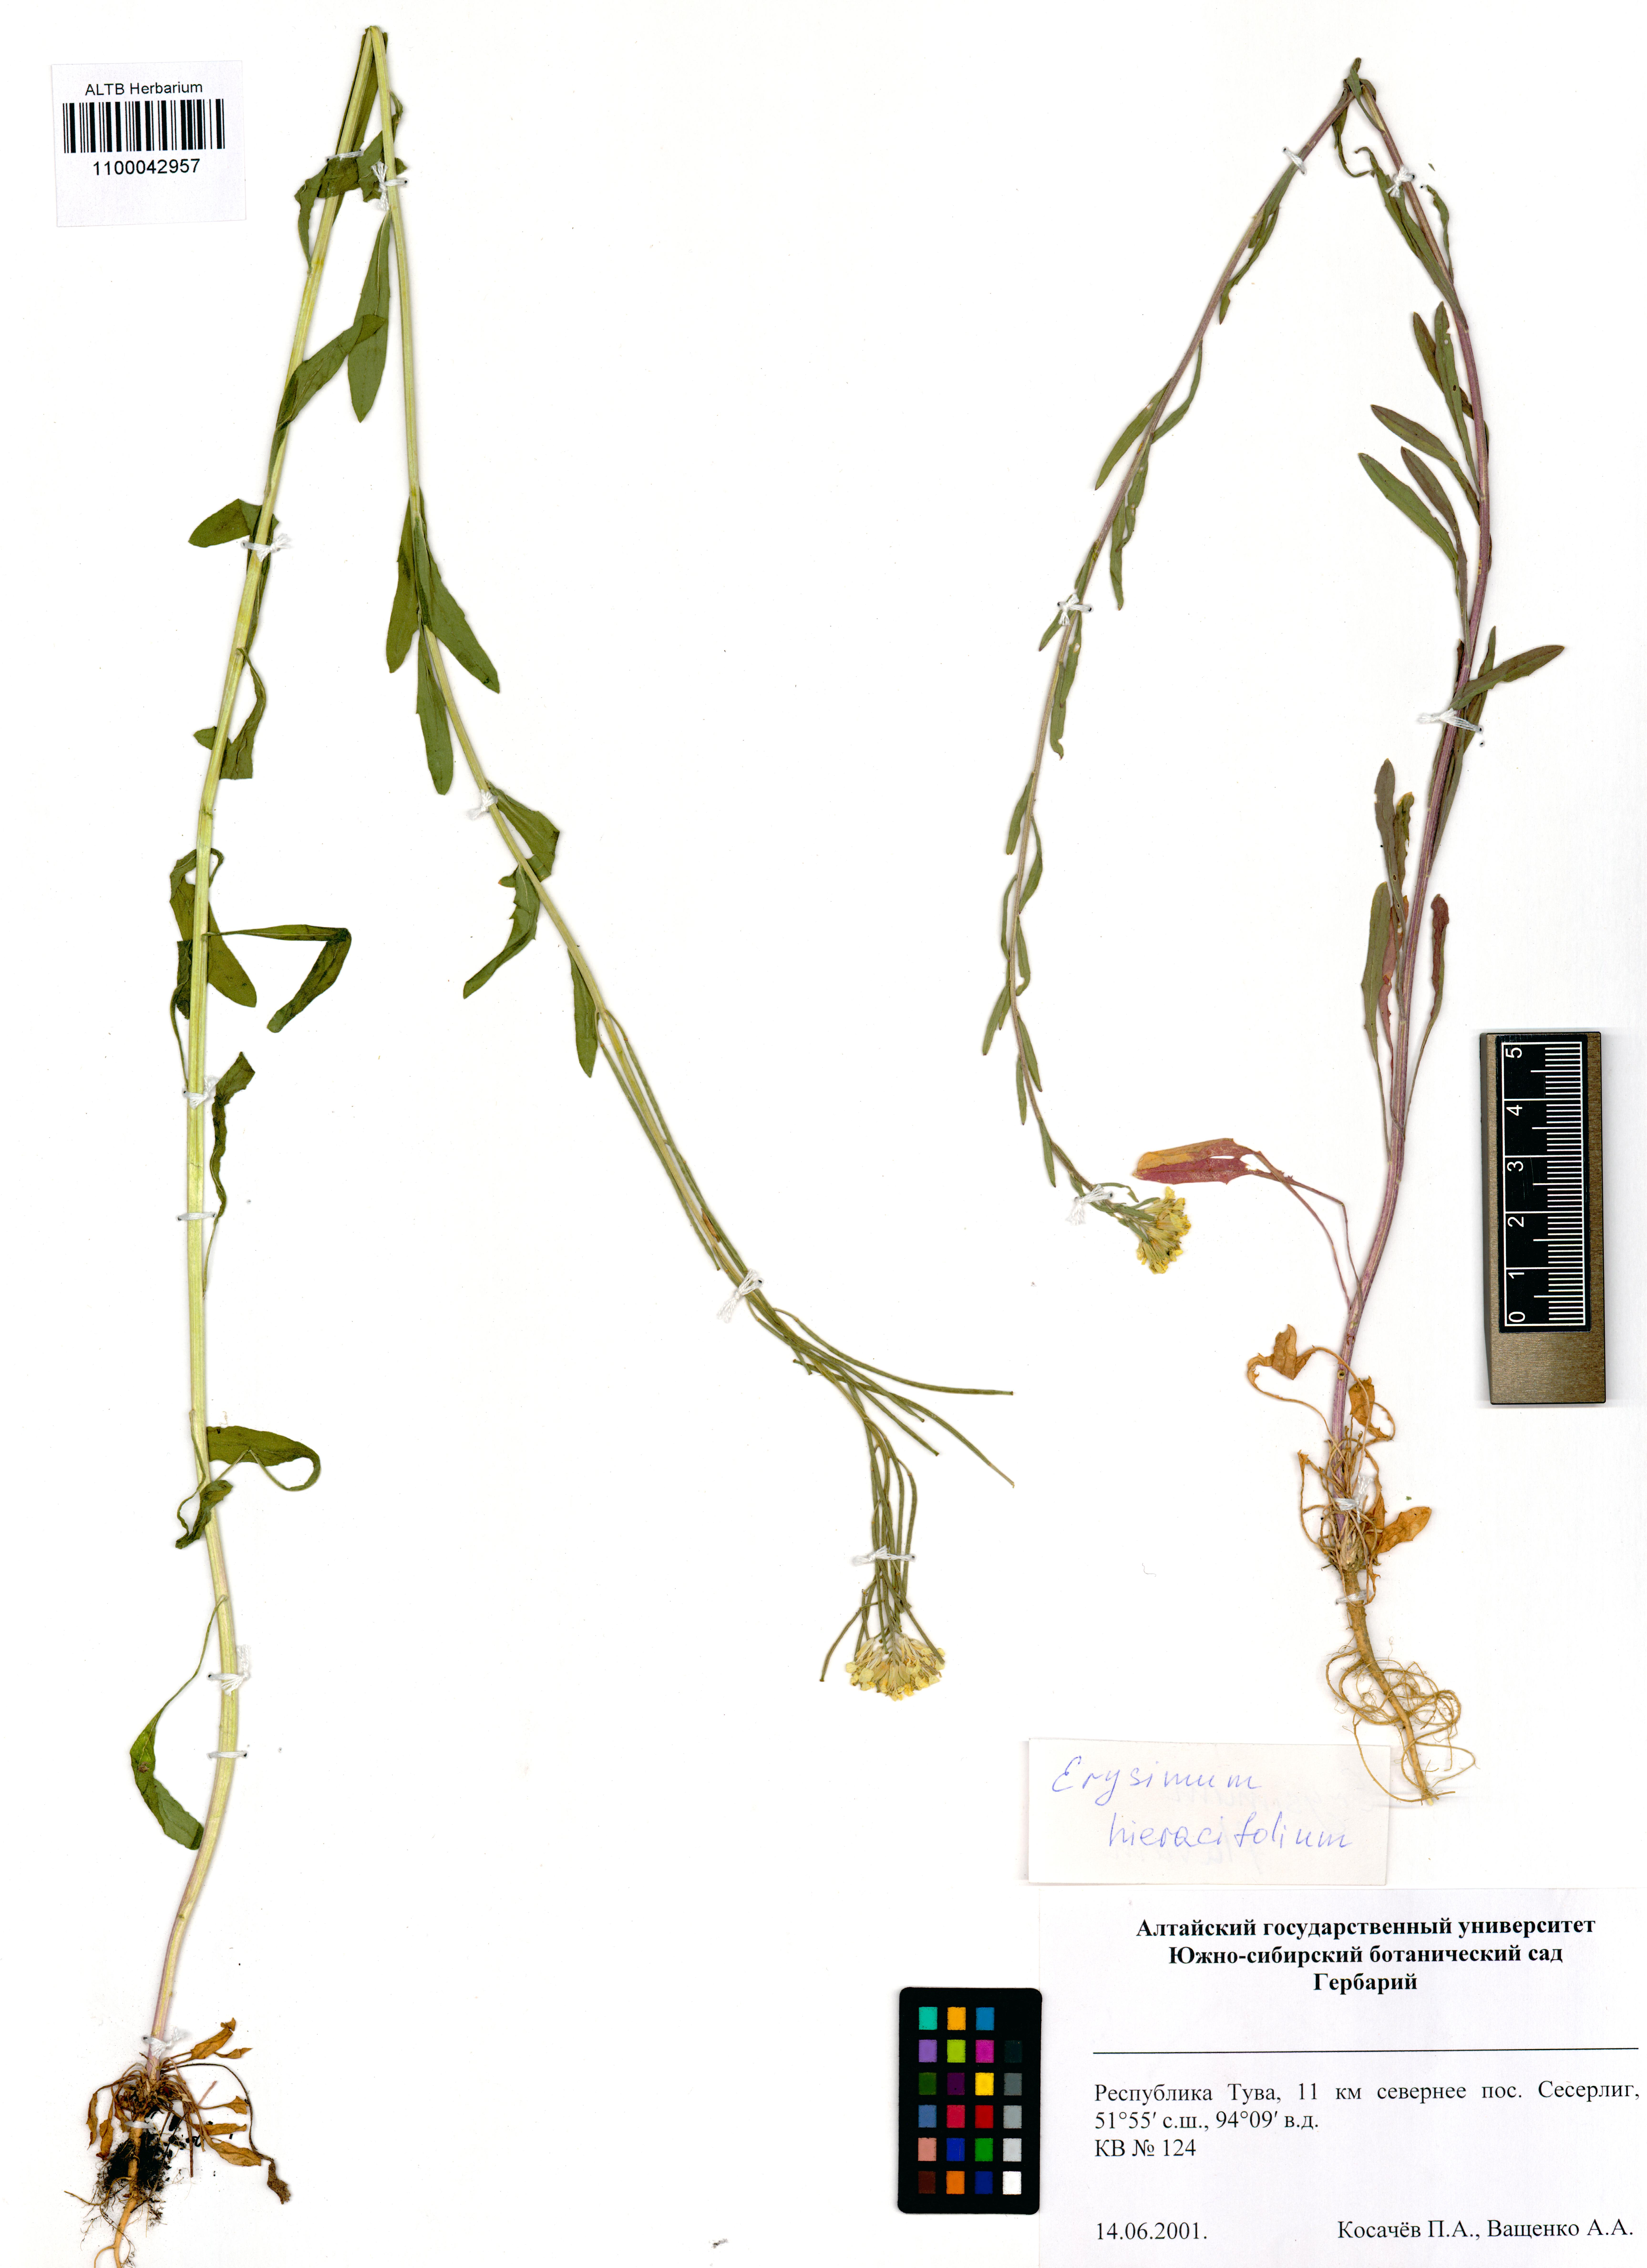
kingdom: Plantae
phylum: Tracheophyta
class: Magnoliopsida
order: Brassicales
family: Brassicaceae
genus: Erysimum
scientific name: Erysimum hieraciifolium
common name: European wallflower
